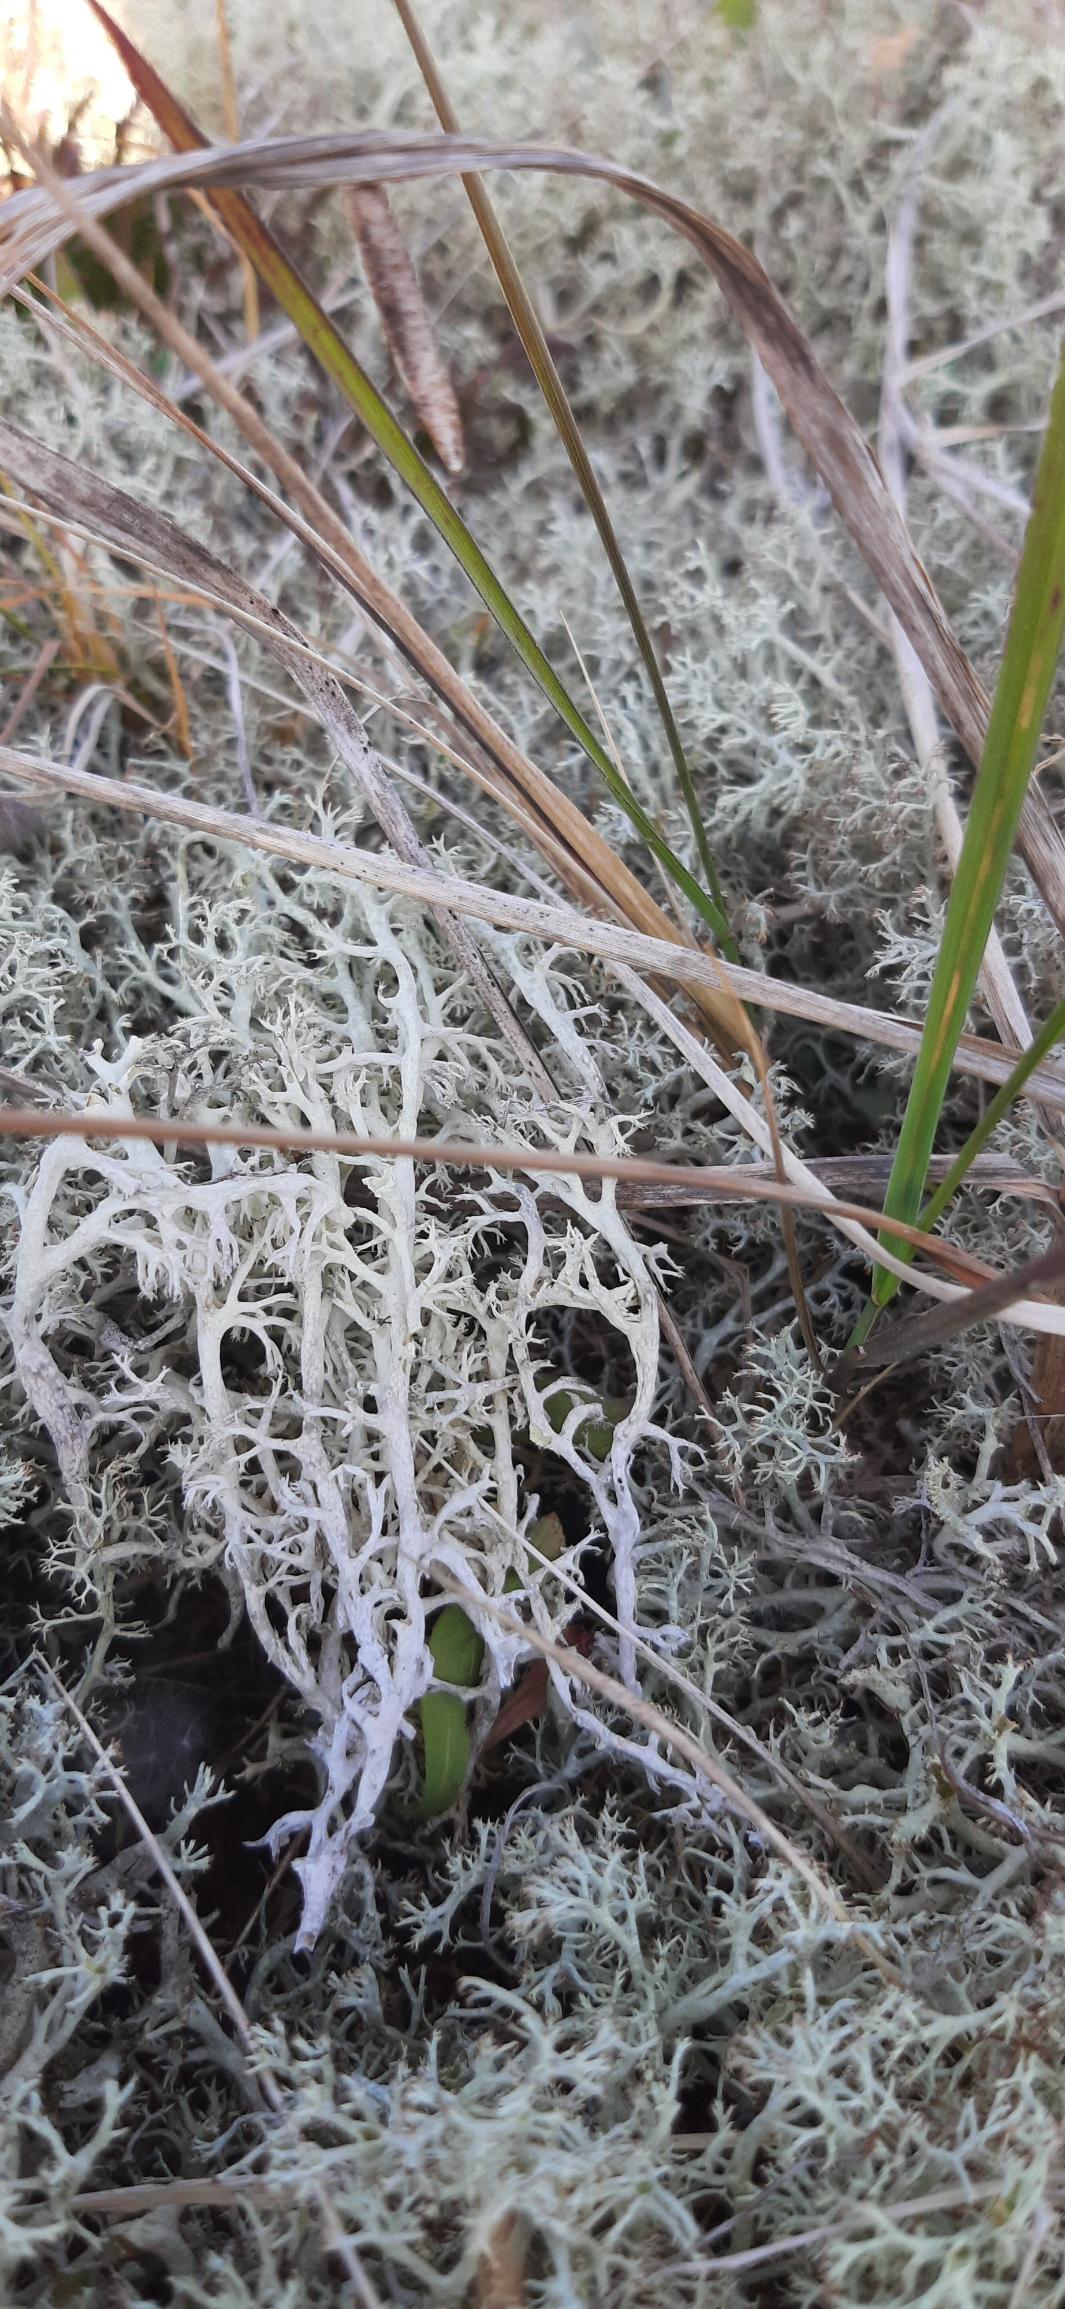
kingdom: Fungi
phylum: Ascomycota
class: Lecanoromycetes
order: Lecanorales
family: Cladoniaceae
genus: Cladina
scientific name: Cladina
